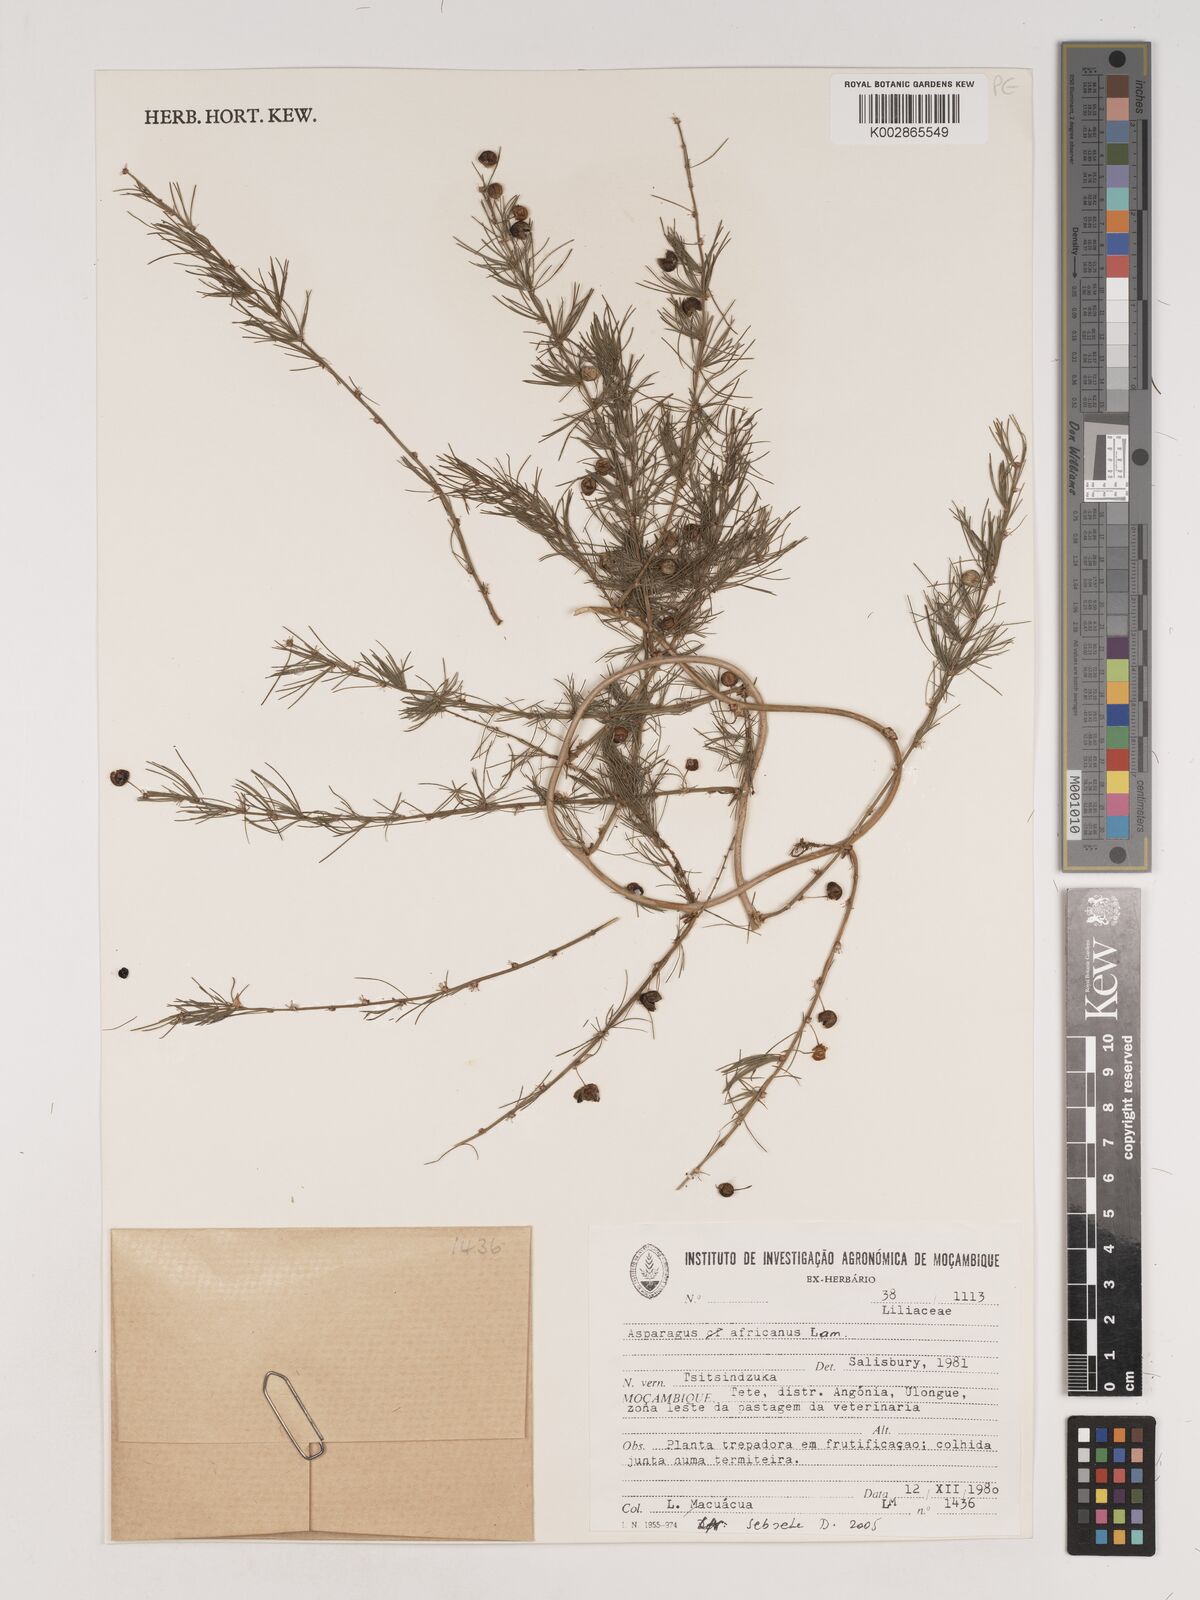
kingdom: Plantae
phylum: Tracheophyta
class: Liliopsida
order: Asparagales
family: Asparagaceae
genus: Asparagus
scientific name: Asparagus africanus
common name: Asparagus-fern
